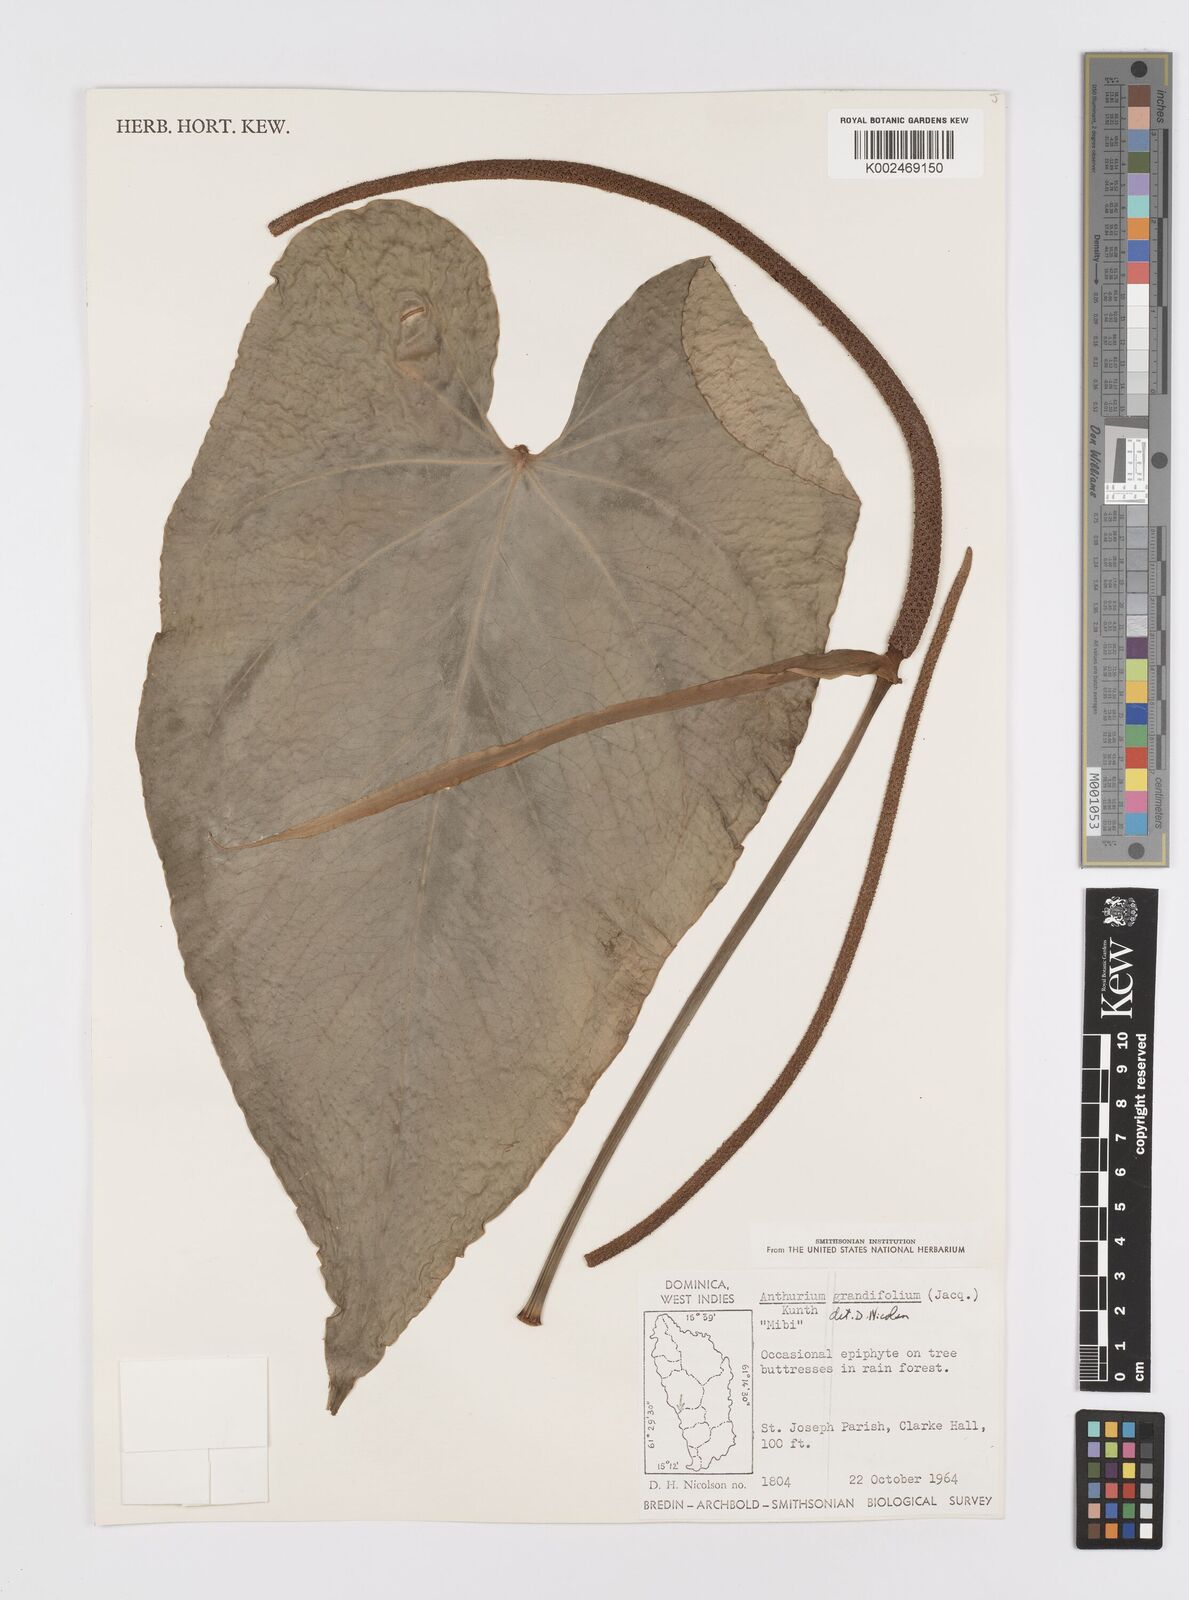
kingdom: Plantae
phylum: Tracheophyta
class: Liliopsida
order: Alismatales
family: Araceae
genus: Anthurium
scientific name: Anthurium grandifolium
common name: Monkey tail
